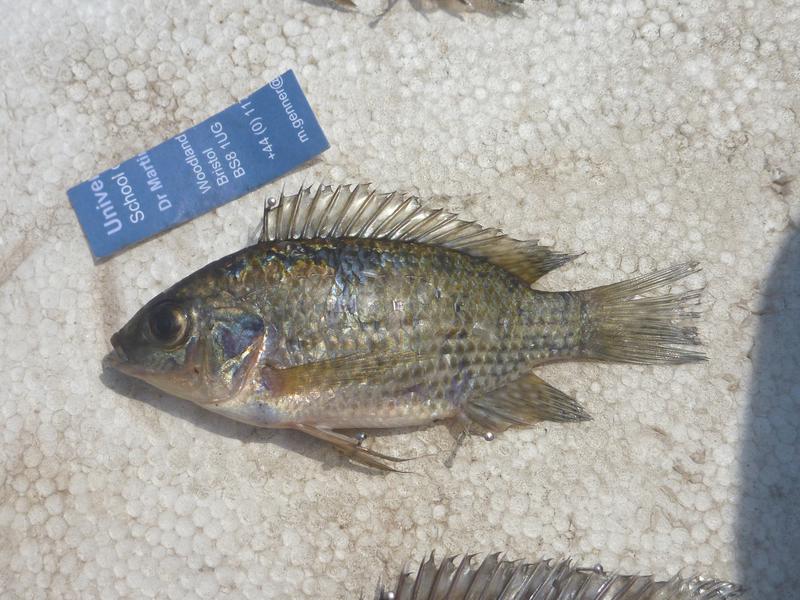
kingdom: Animalia
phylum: Chordata
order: Perciformes
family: Cichlidae
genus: Oreochromis
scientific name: Oreochromis leucostictus
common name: Blue spotted tilapia
